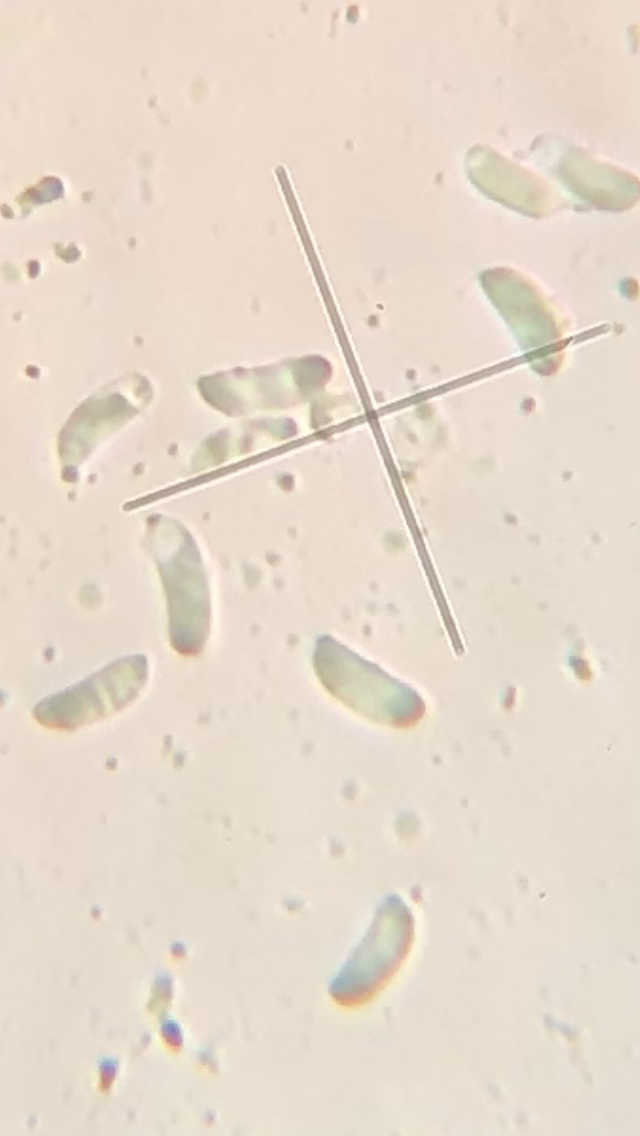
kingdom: Fungi
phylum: Basidiomycota
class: Agaricomycetes
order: Polyporales
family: Dacryobolaceae
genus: Dacryobolus
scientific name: Dacryobolus karstenii
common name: glat vulkanskorpe
